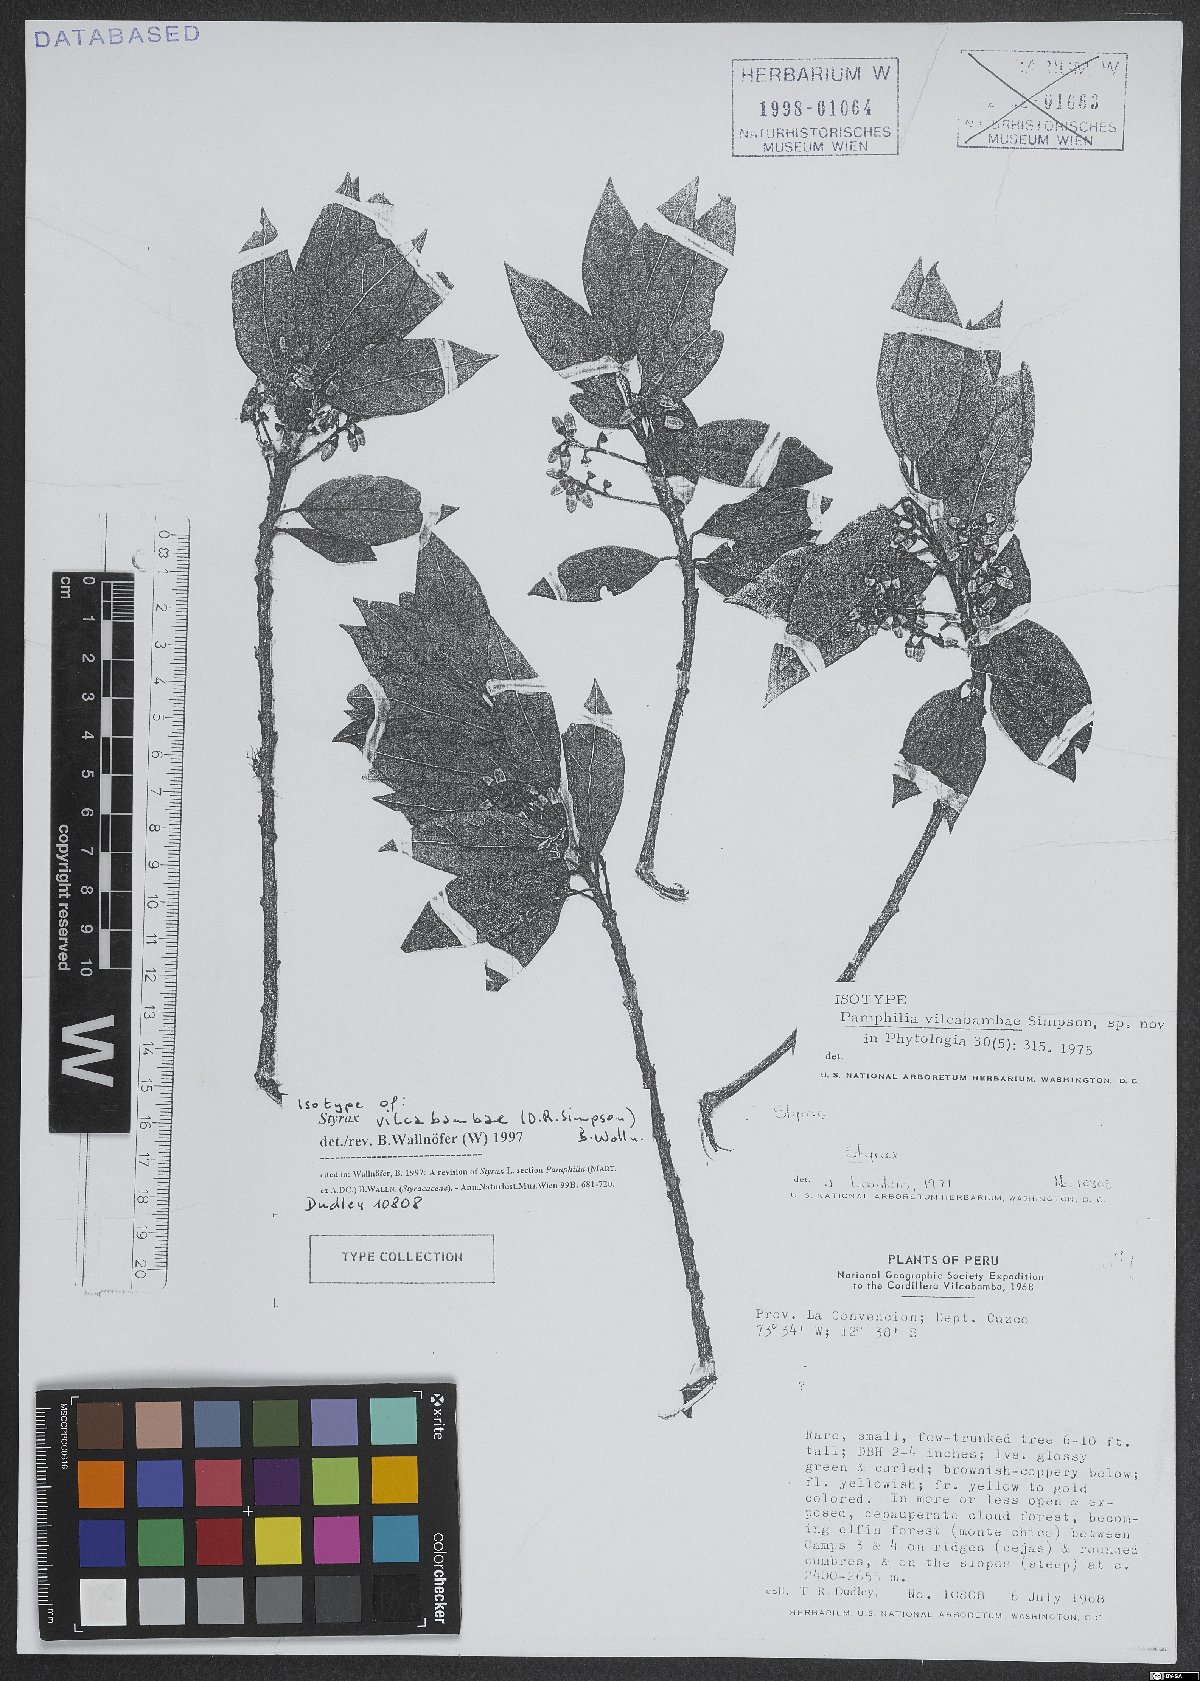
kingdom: Plantae
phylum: Tracheophyta
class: Magnoliopsida
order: Ericales
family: Styracaceae
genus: Styrax
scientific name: Styrax vilcabambae
